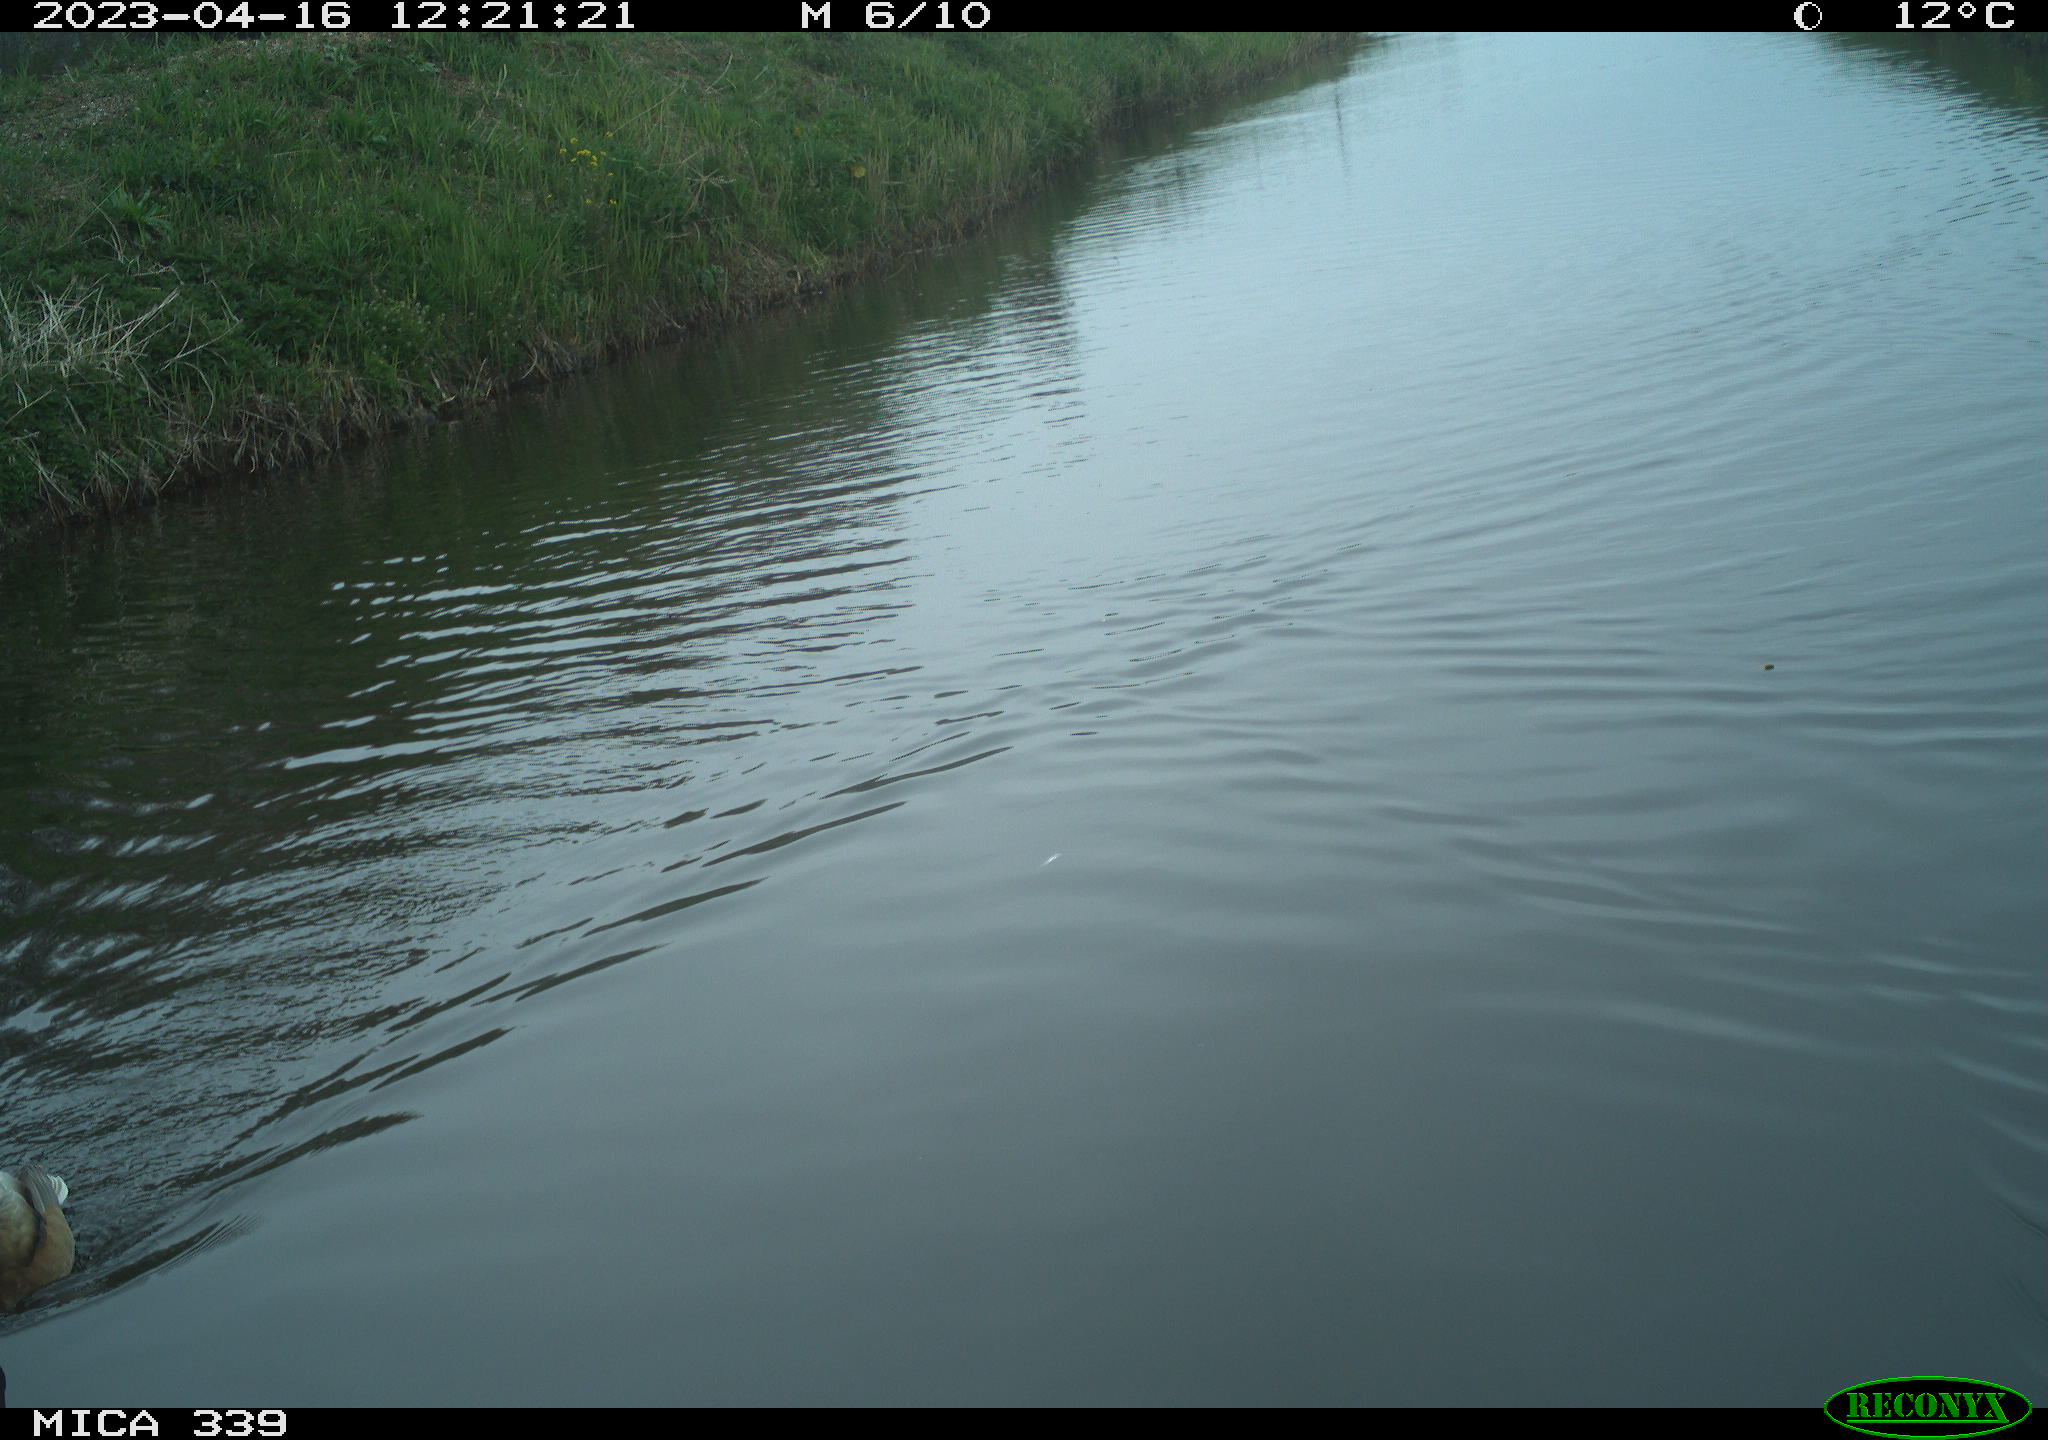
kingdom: Animalia
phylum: Chordata
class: Aves
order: Anseriformes
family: Anatidae
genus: Anas
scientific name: Anas platyrhynchos
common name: Mallard
